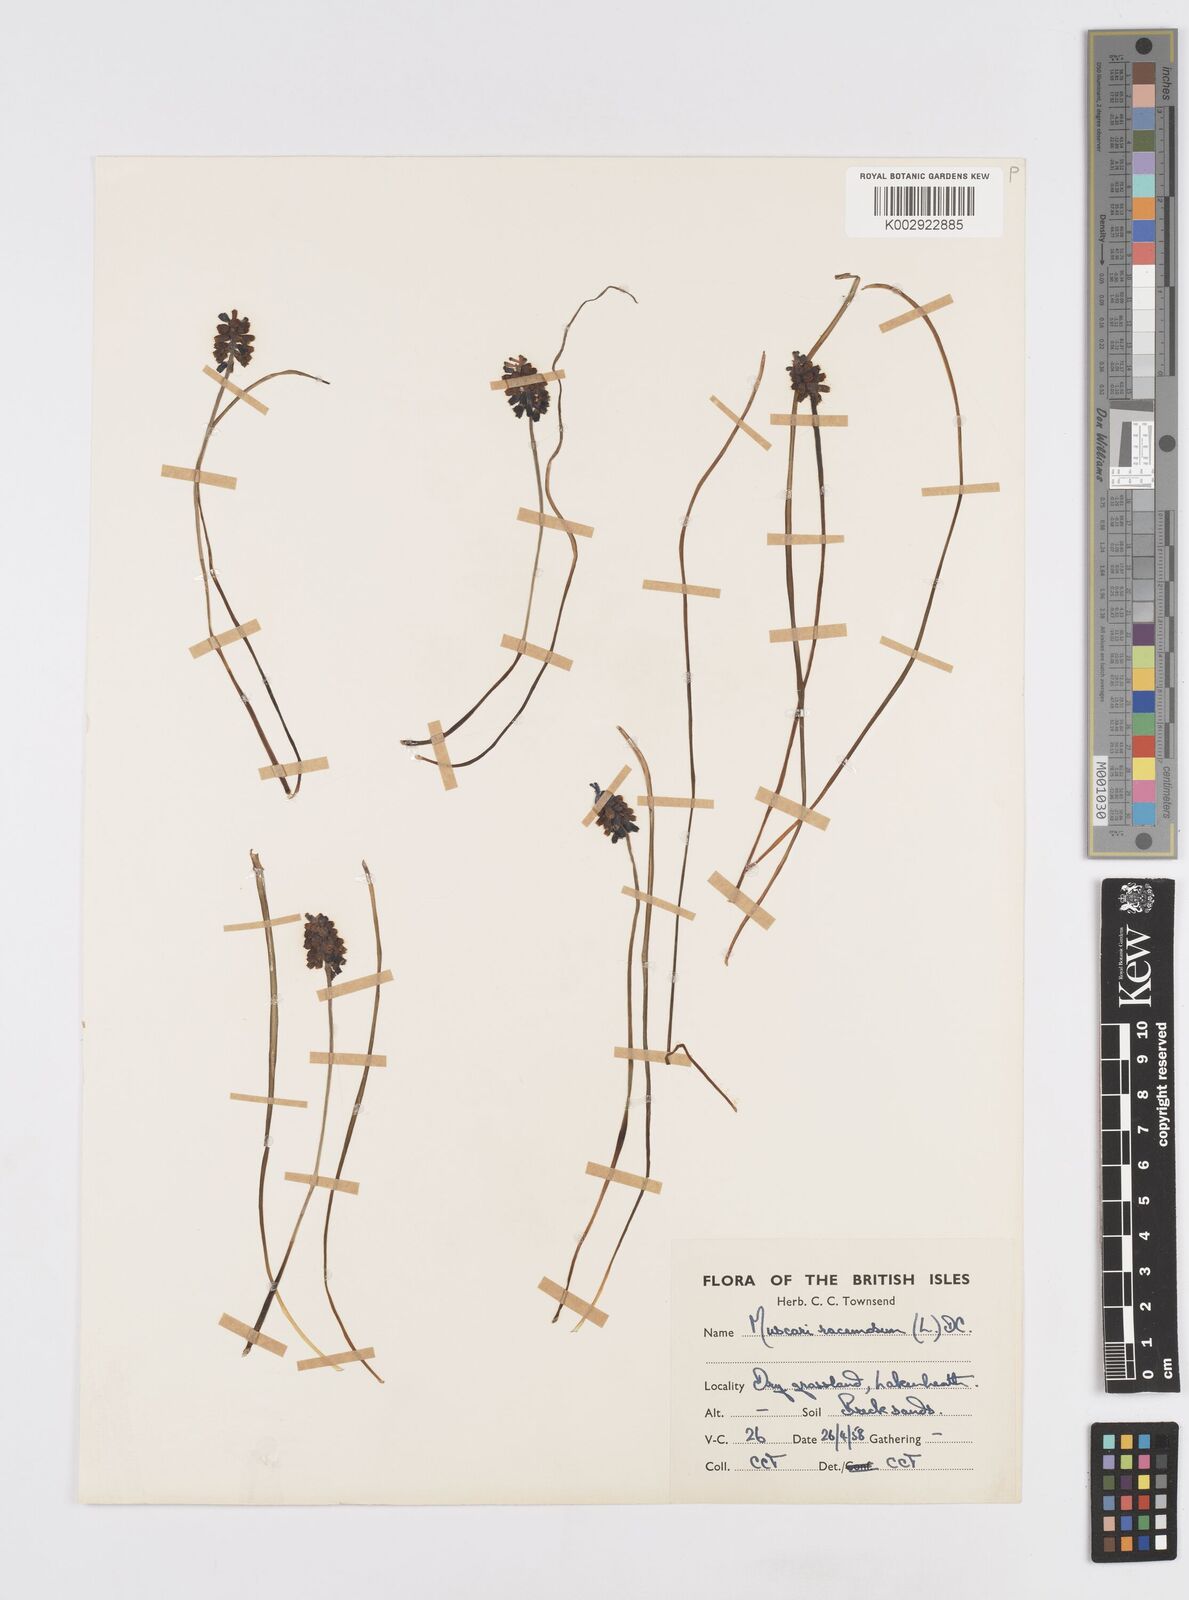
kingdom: Plantae
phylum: Tracheophyta
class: Liliopsida
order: Asparagales
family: Asparagaceae
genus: Muscarimia
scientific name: Muscarimia muscari
